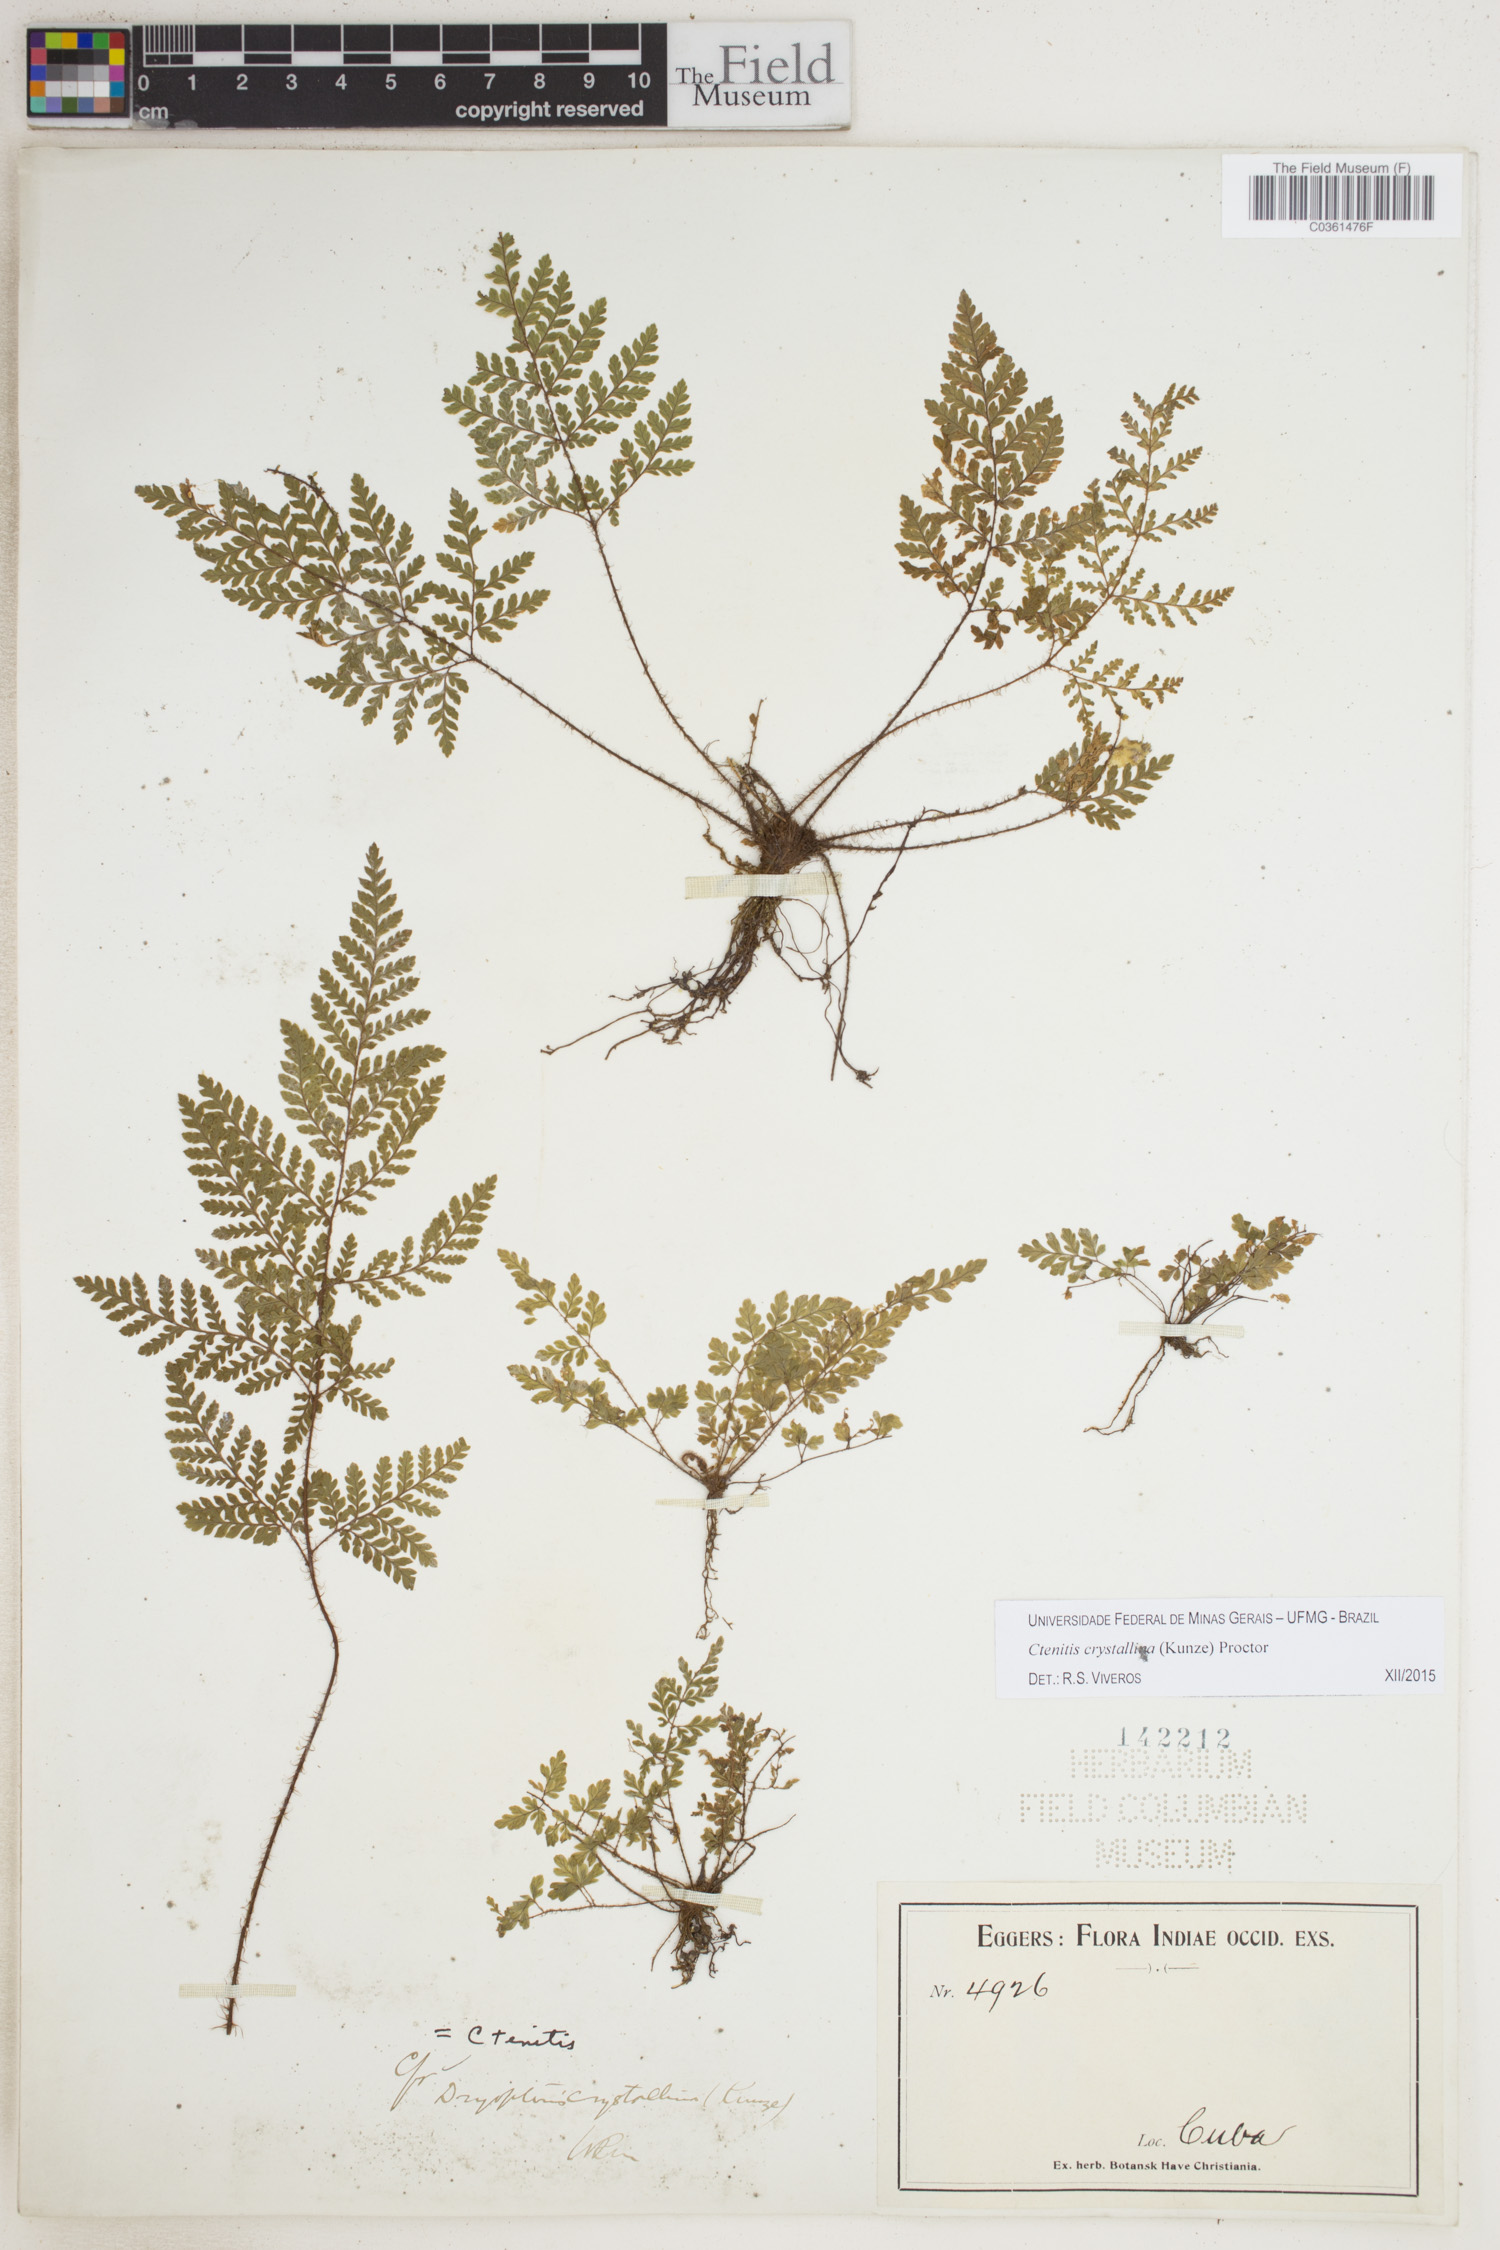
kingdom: Plantae
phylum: Tracheophyta
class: Polypodiopsida
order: Polypodiales
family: Dryopteridaceae
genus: Ctenitis
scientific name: Ctenitis crystallina
